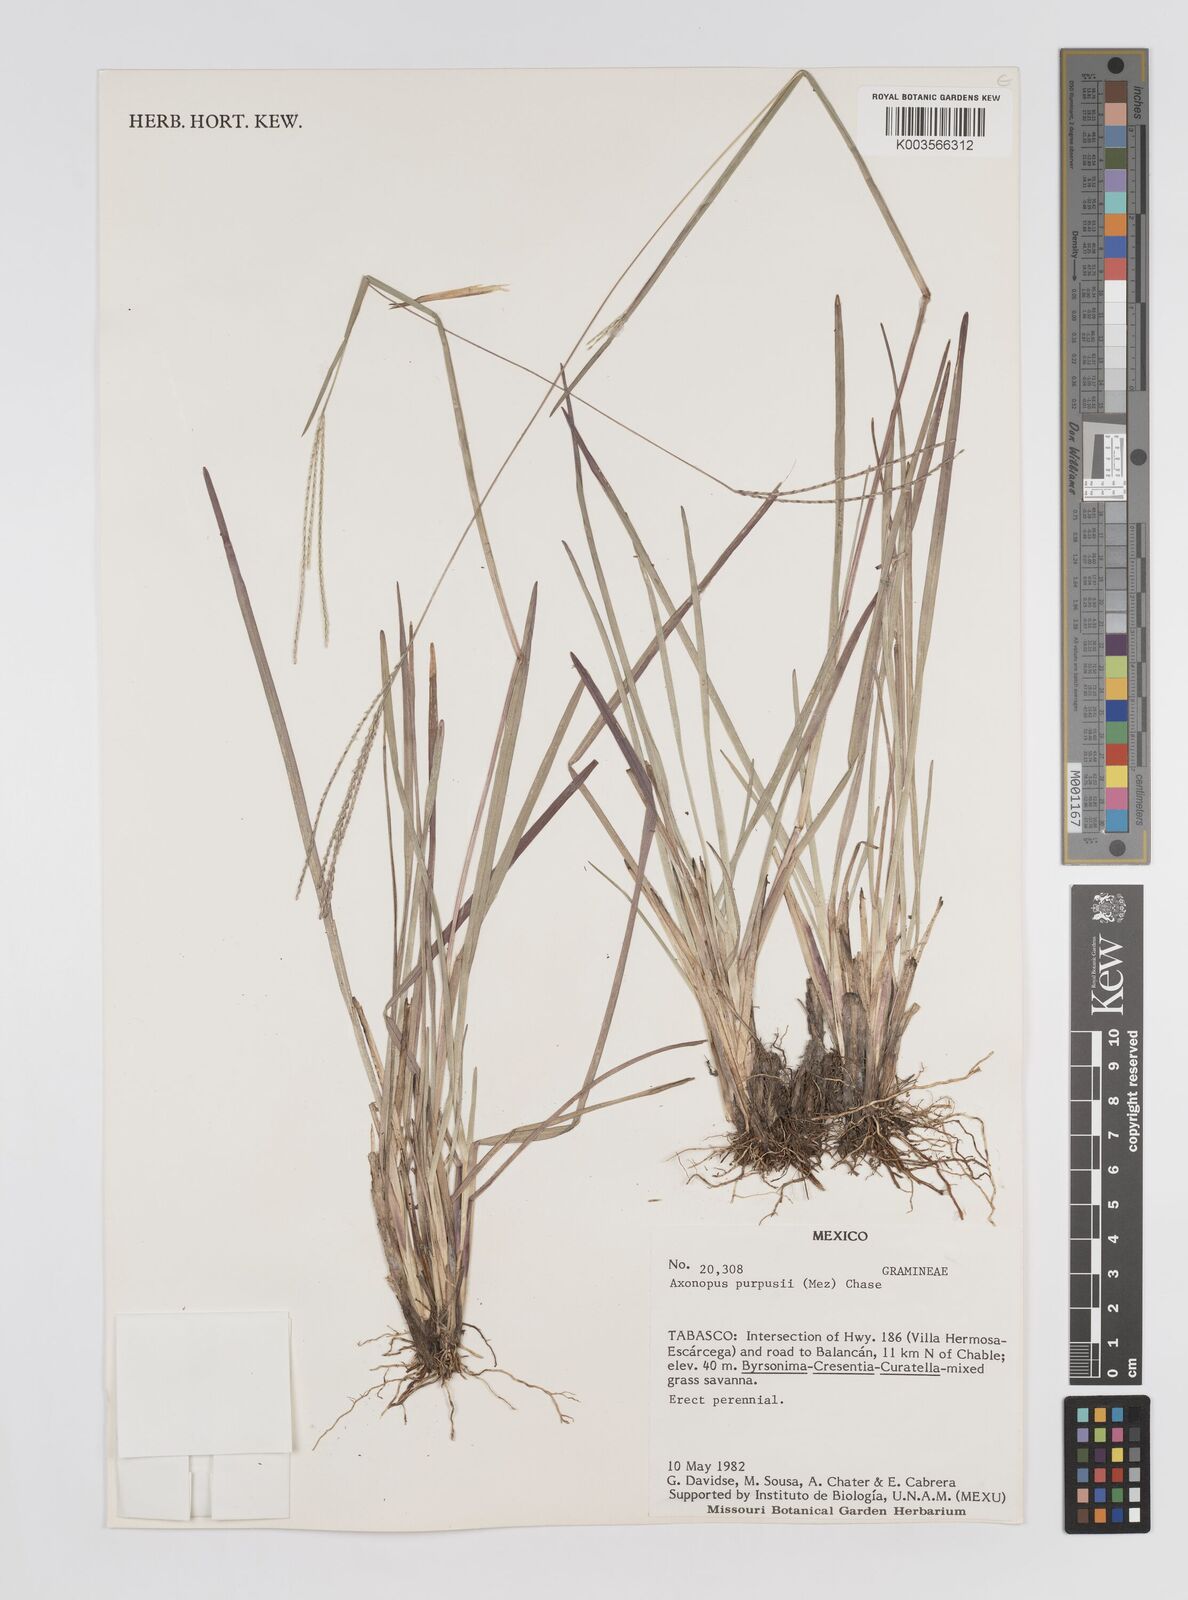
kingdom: Plantae
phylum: Tracheophyta
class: Liliopsida
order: Poales
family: Poaceae
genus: Axonopus
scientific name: Axonopus purpusii
